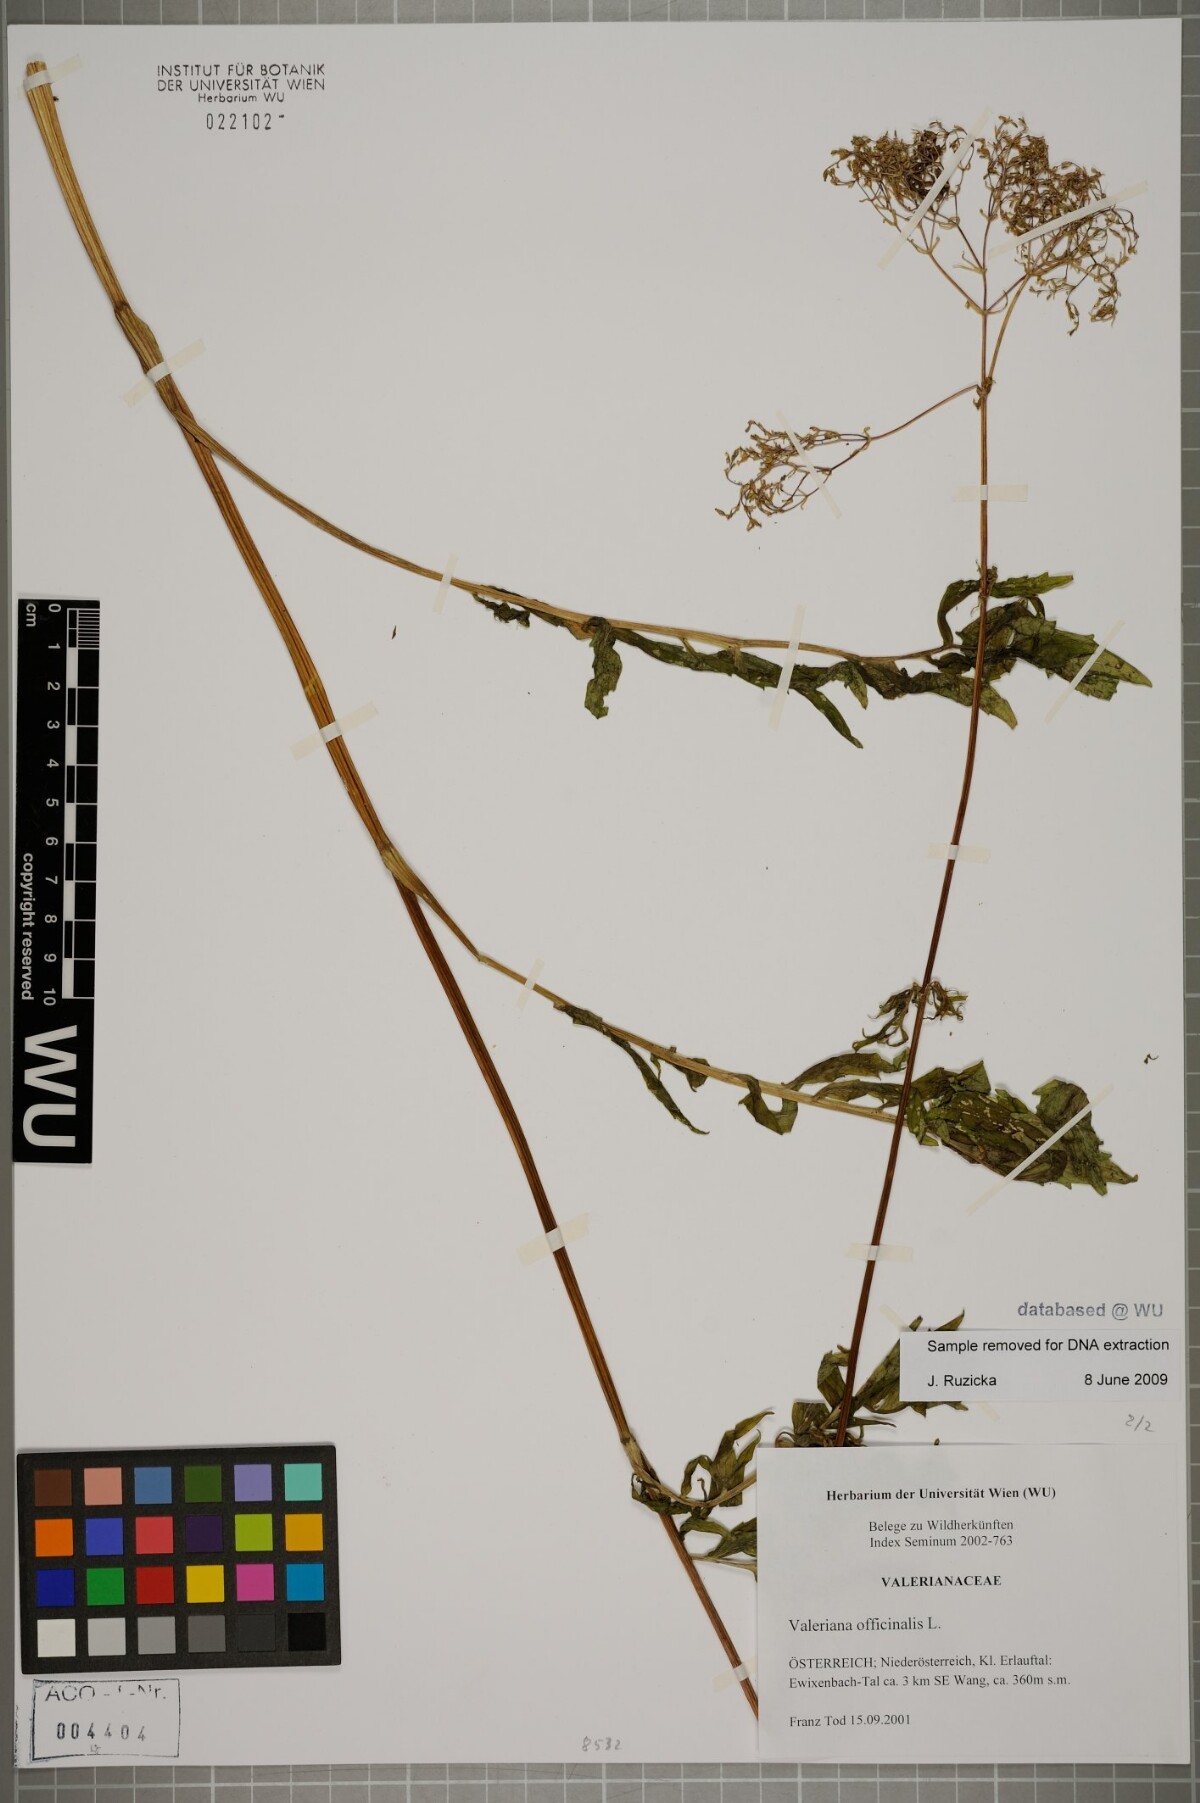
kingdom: Plantae
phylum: Tracheophyta
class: Magnoliopsida
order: Dipsacales
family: Caprifoliaceae
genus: Valeriana
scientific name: Valeriana officinalis
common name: Common valerian
